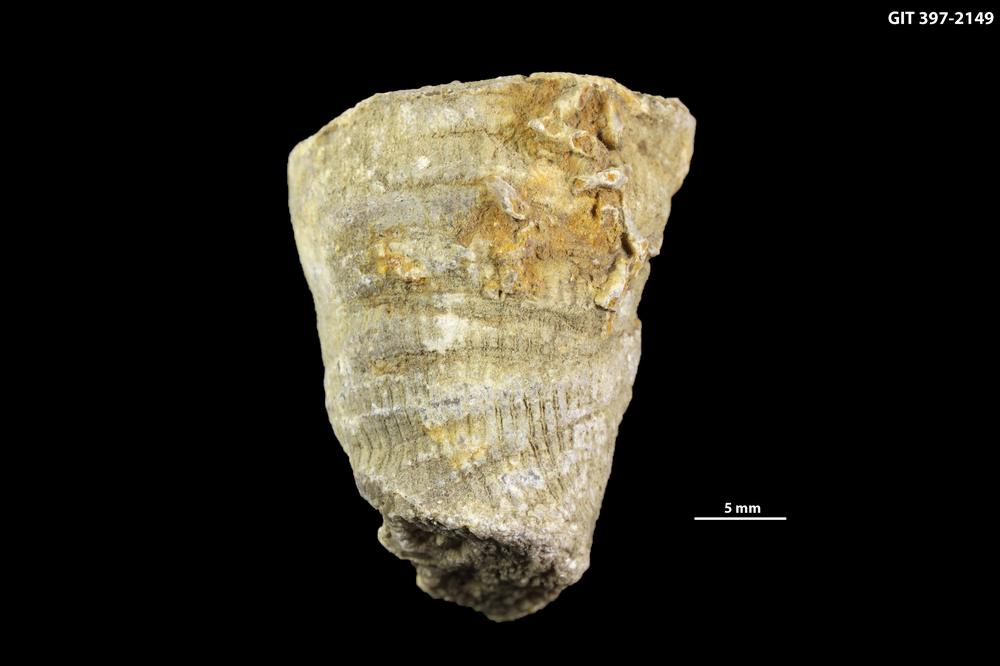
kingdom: Animalia
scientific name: Animalia
